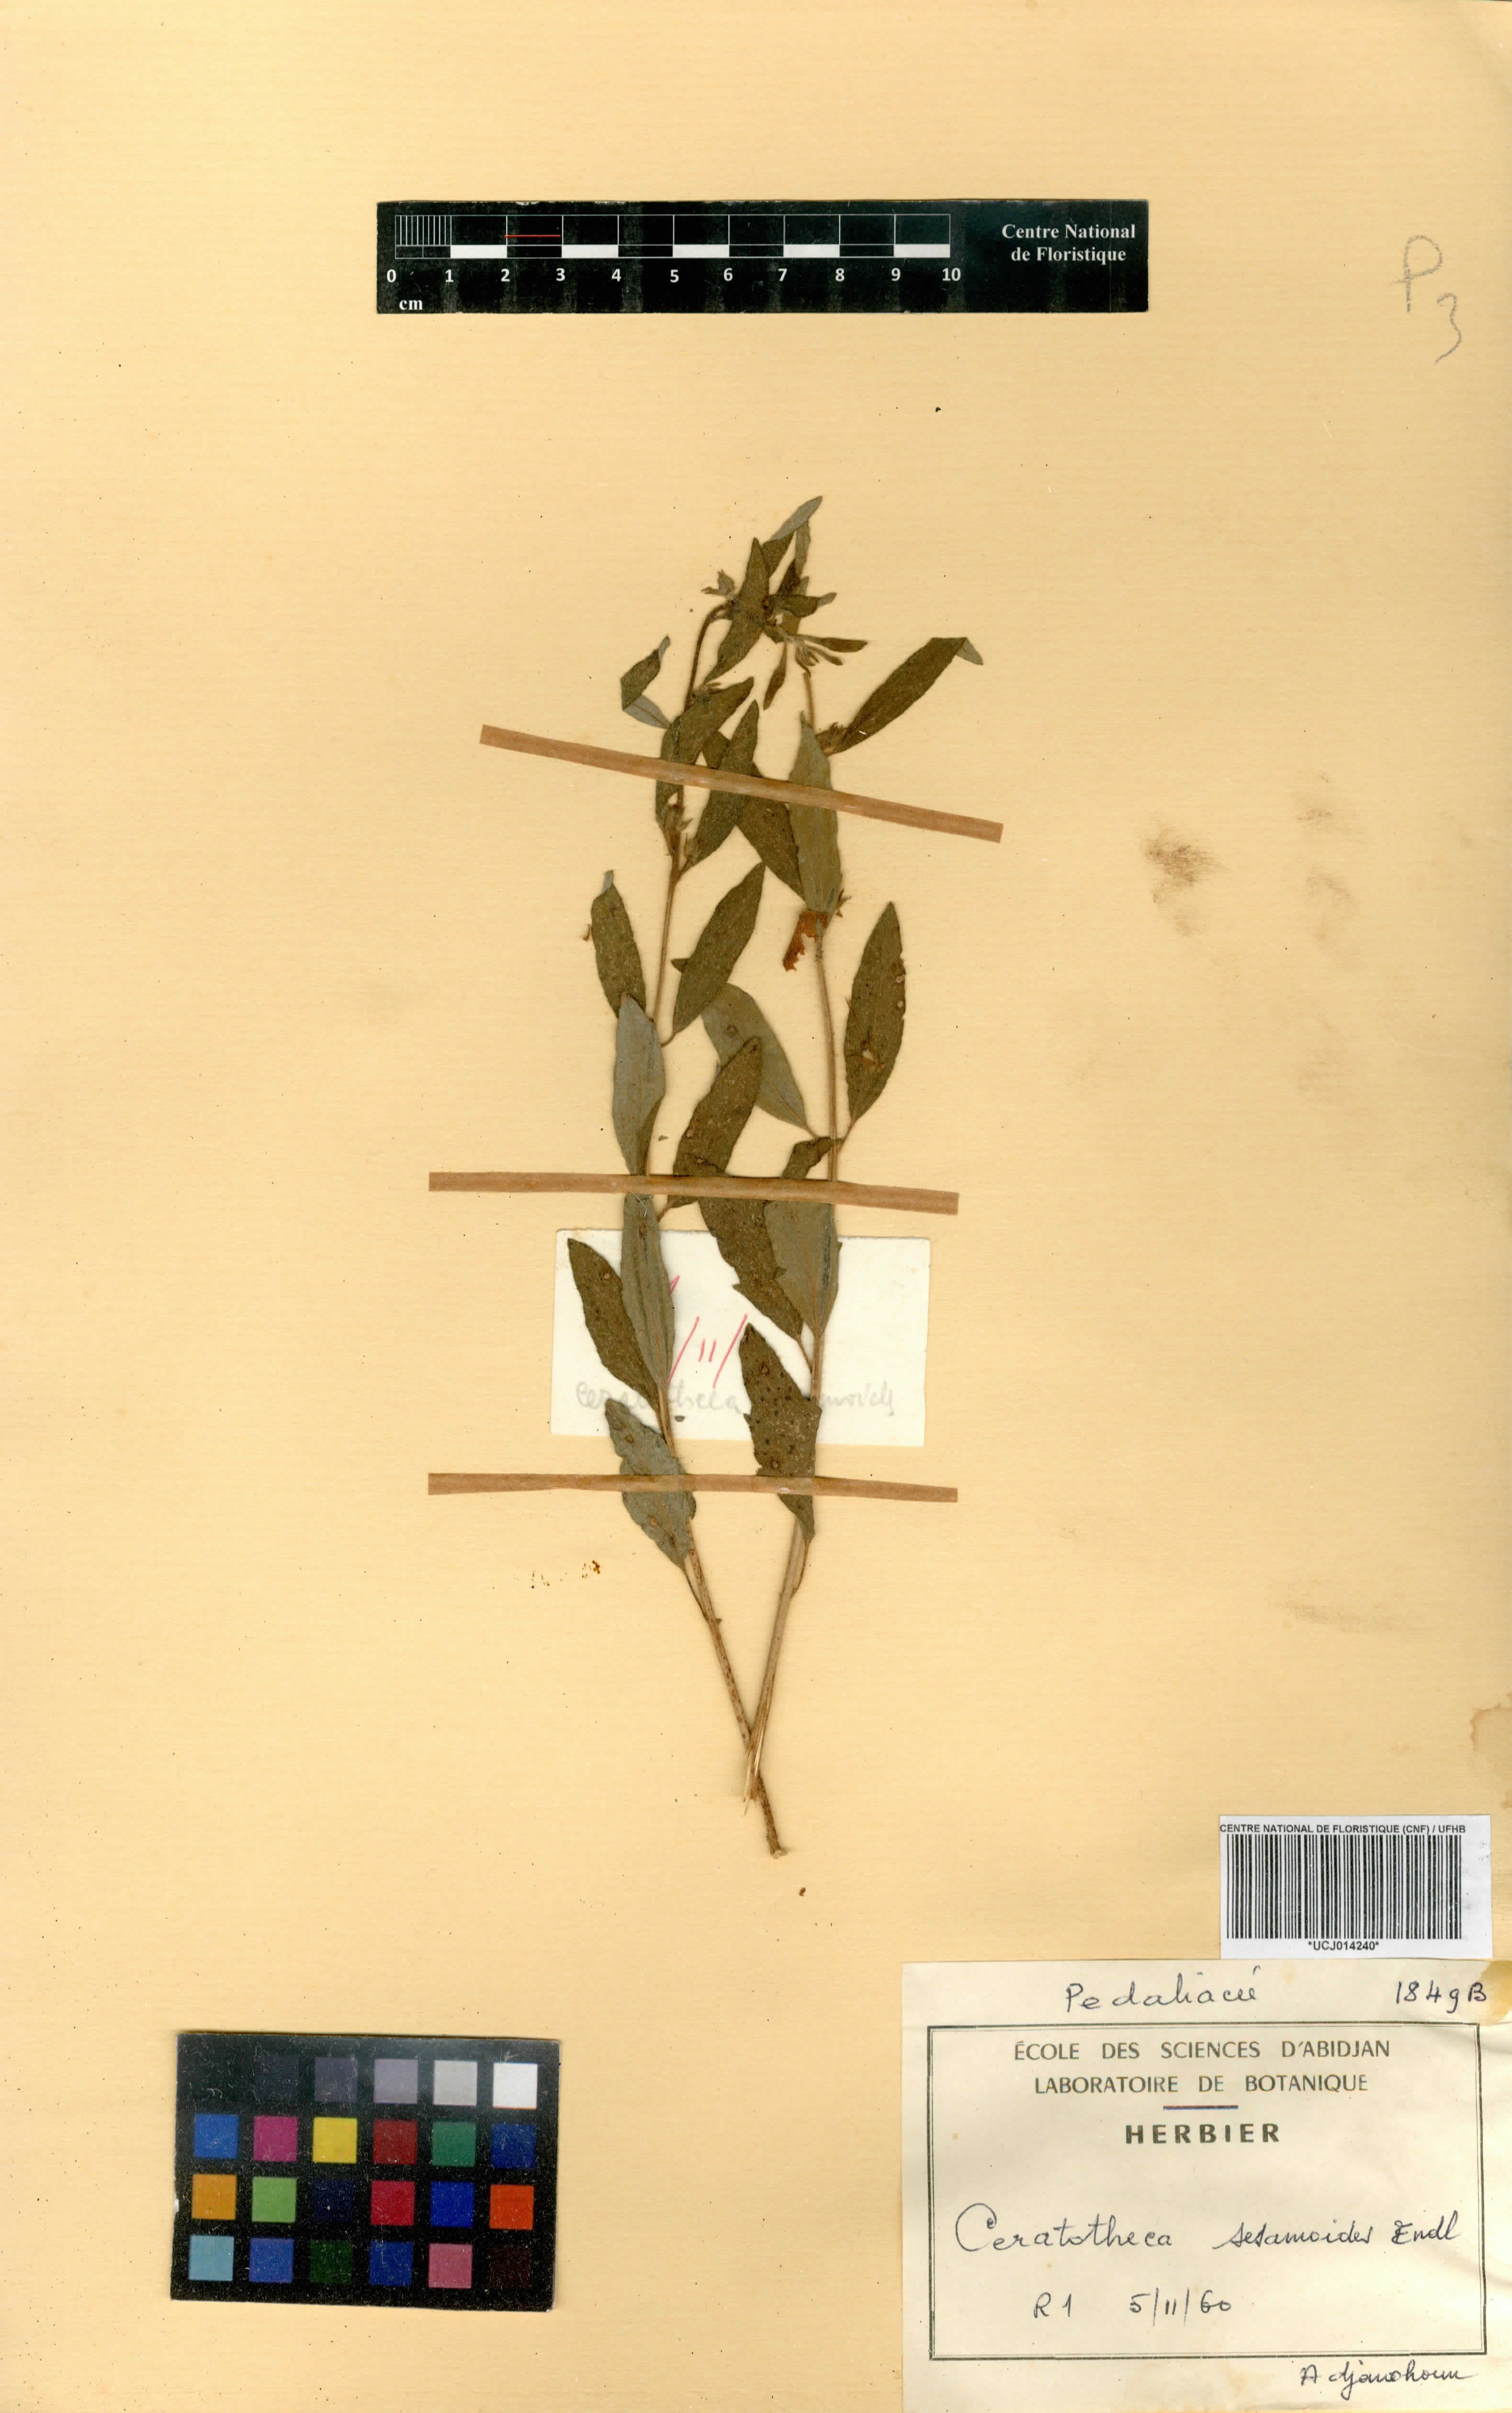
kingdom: Plantae
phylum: Tracheophyta
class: Magnoliopsida
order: Lamiales
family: Pedaliaceae
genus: Sesamum
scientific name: Sesamum sesamoides
